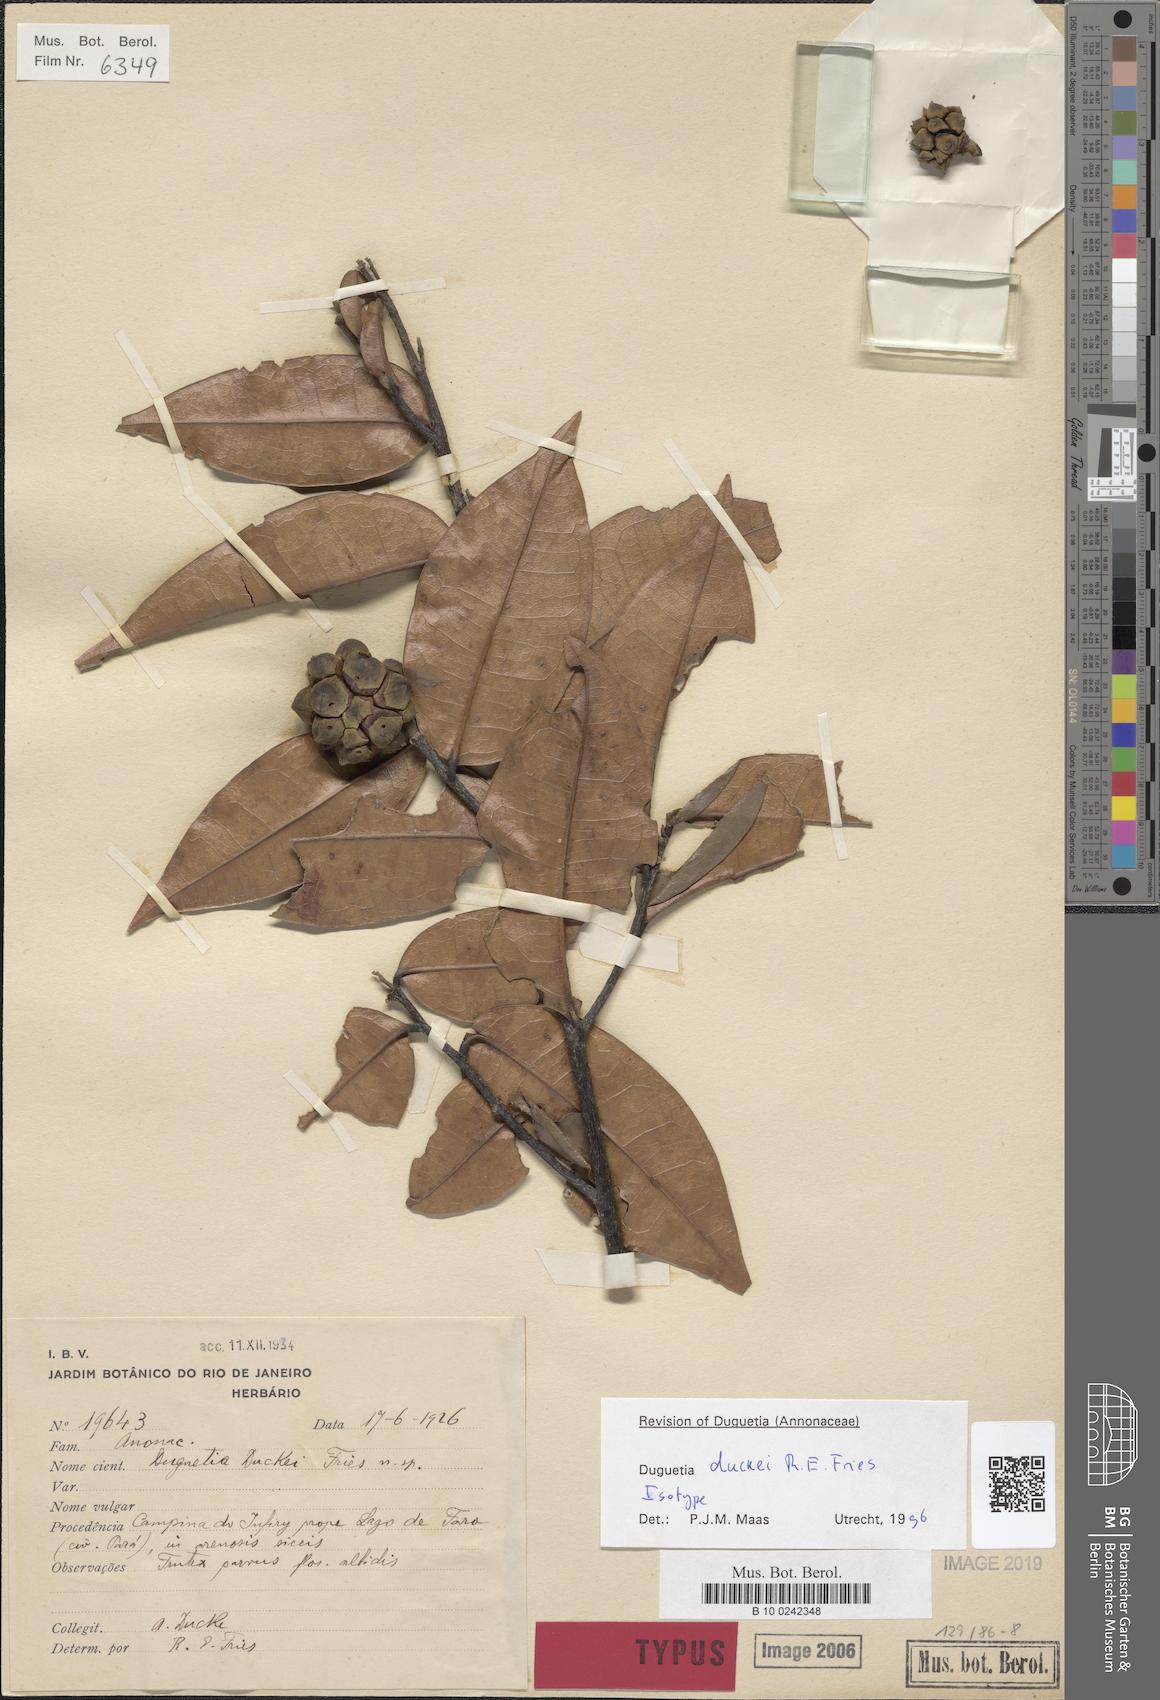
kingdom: Plantae
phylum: Tracheophyta
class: Magnoliopsida
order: Magnoliales
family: Annonaceae
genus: Duguetia
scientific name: Duguetia duckei
